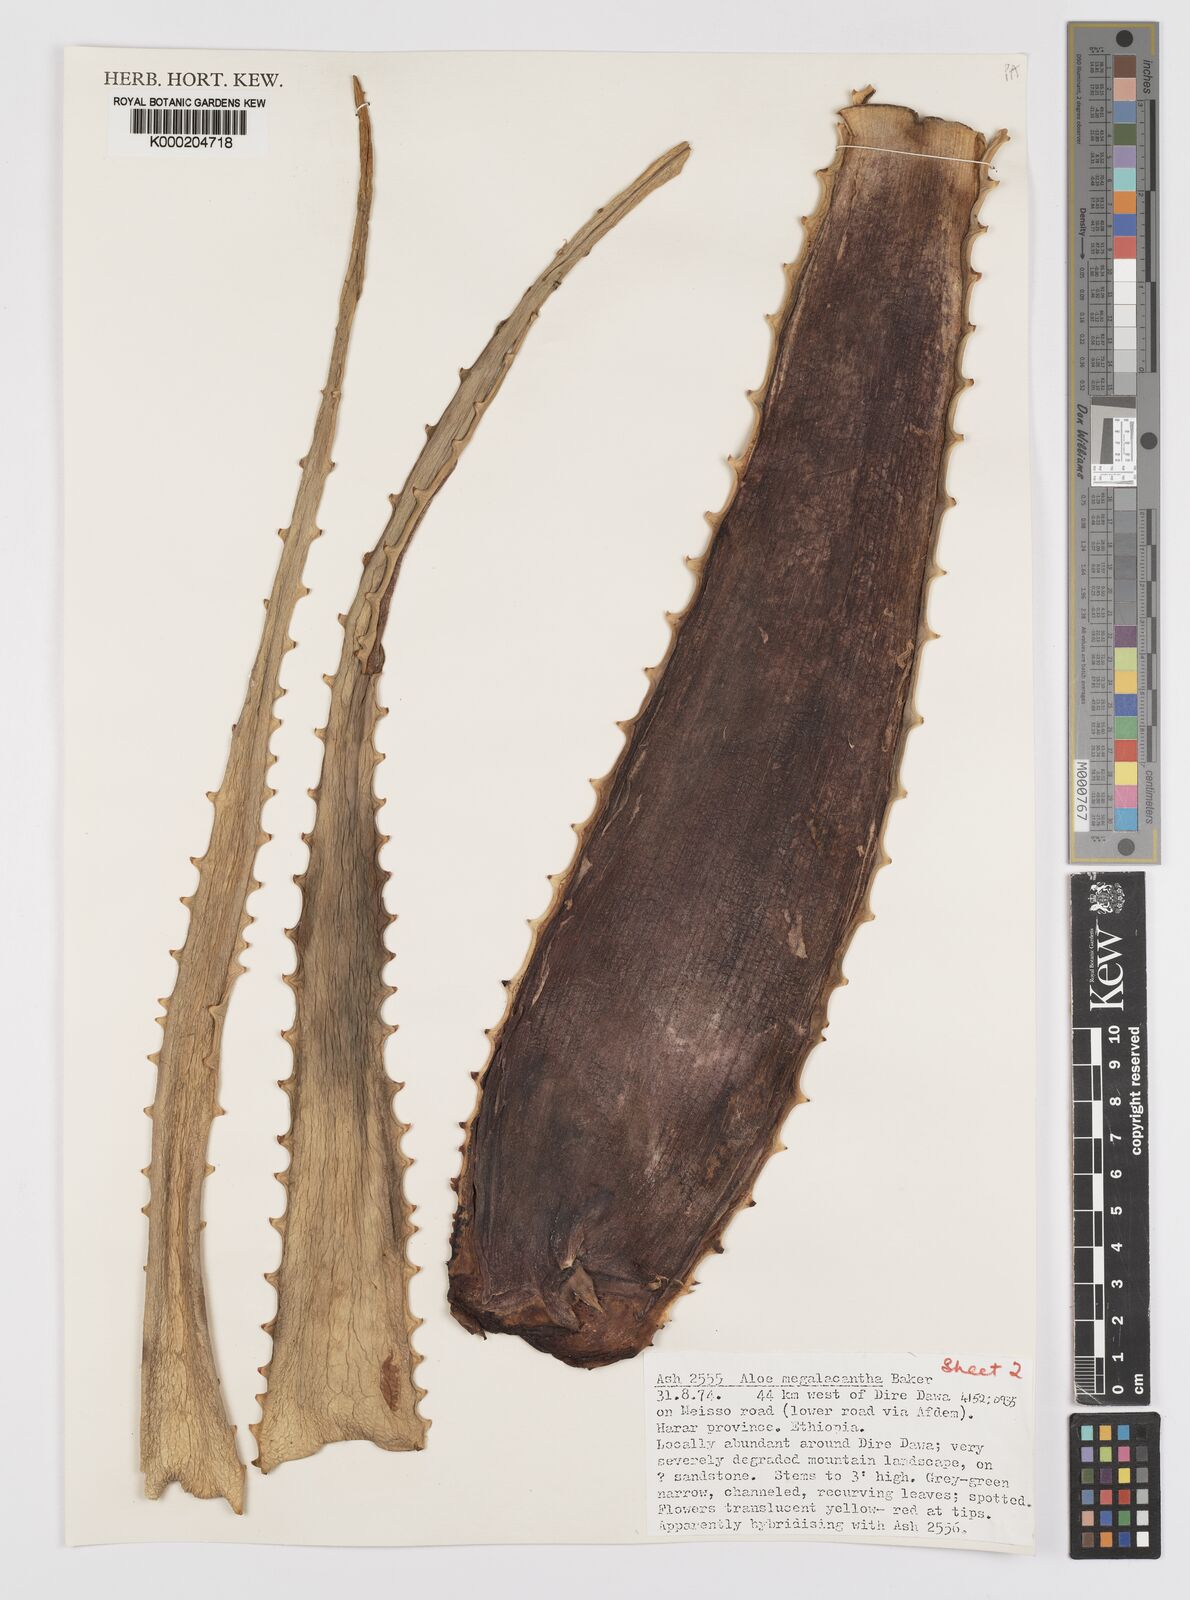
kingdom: Plantae
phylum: Tracheophyta
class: Liliopsida
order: Asparagales
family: Asphodelaceae
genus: Aloe
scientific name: Aloe megalacantha
